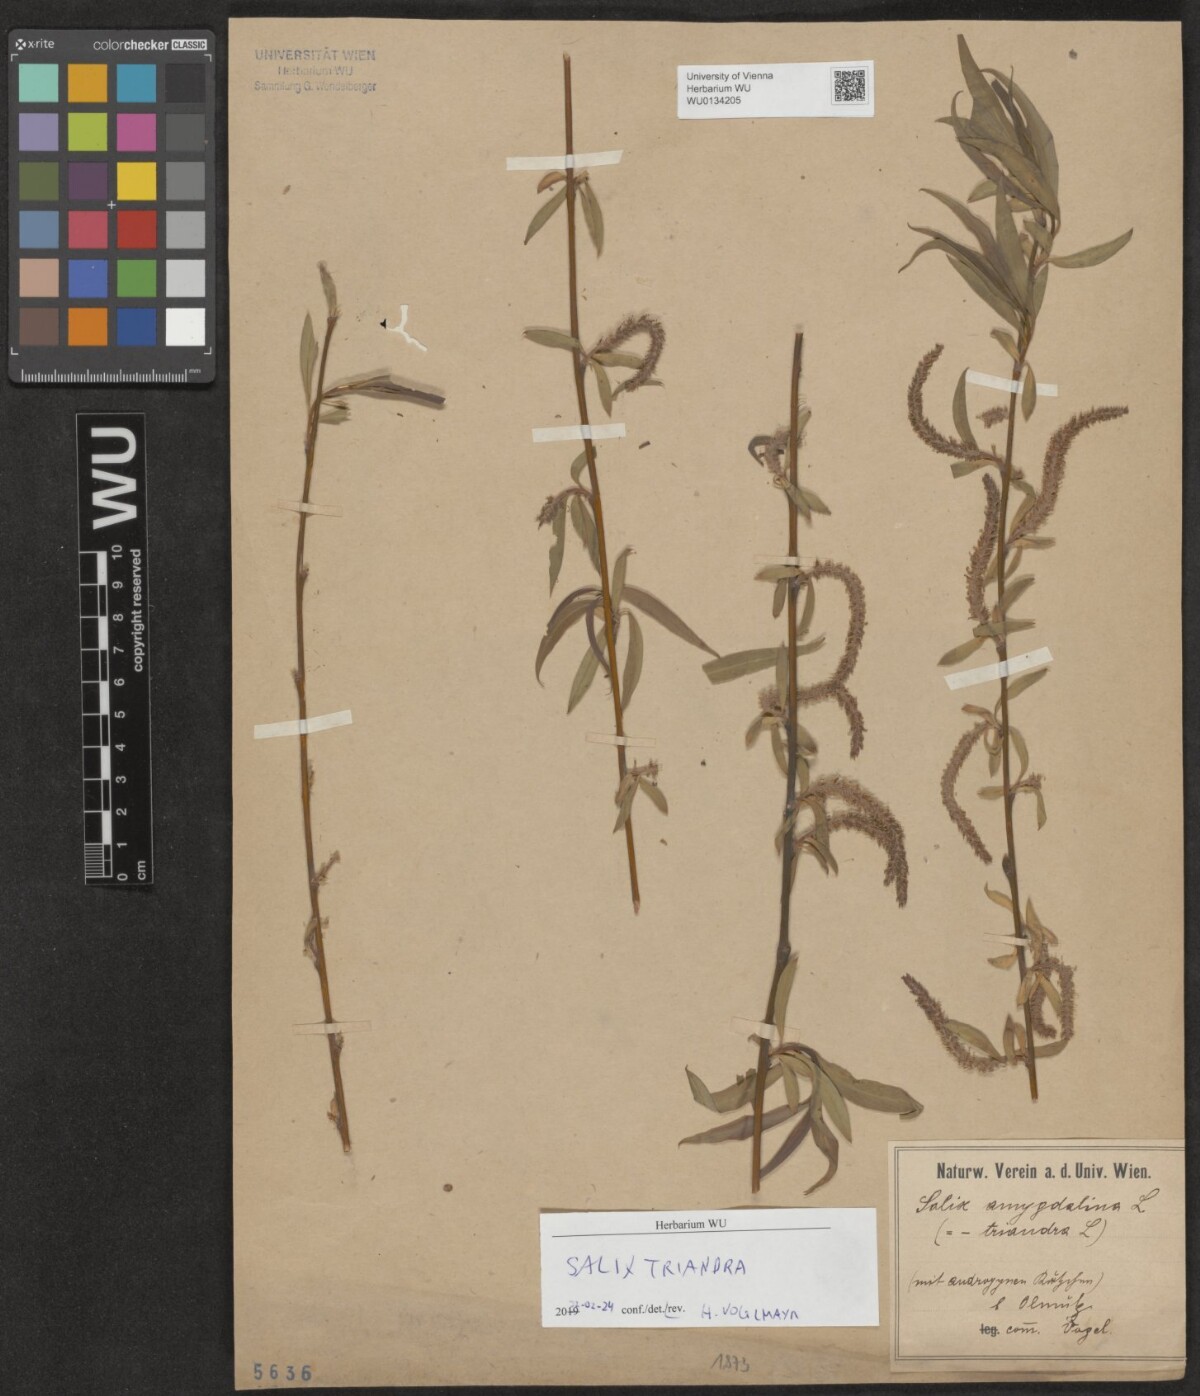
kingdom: Plantae
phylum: Tracheophyta
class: Magnoliopsida
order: Malpighiales
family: Salicaceae
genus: Salix
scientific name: Salix triandra
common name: Almond willow
